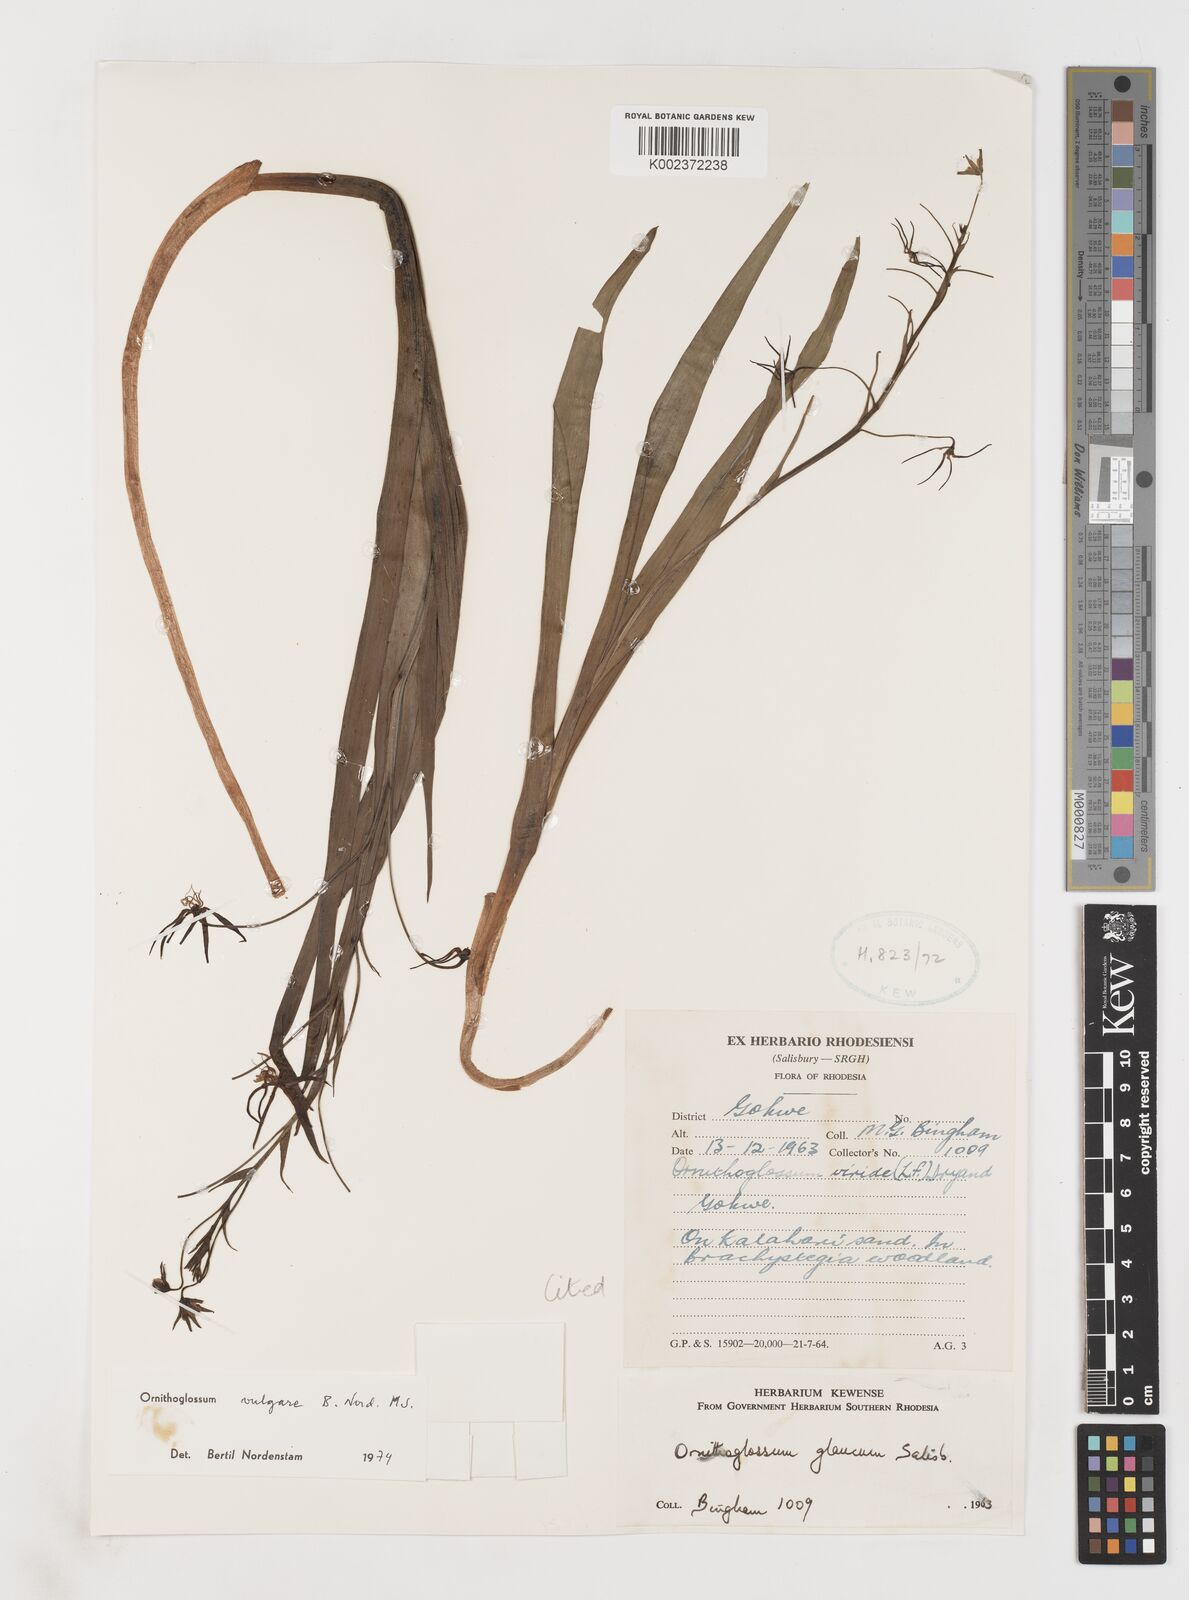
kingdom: Plantae
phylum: Tracheophyta
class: Liliopsida
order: Liliales
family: Colchicaceae
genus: Ornithoglossum
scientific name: Ornithoglossum vulgare
